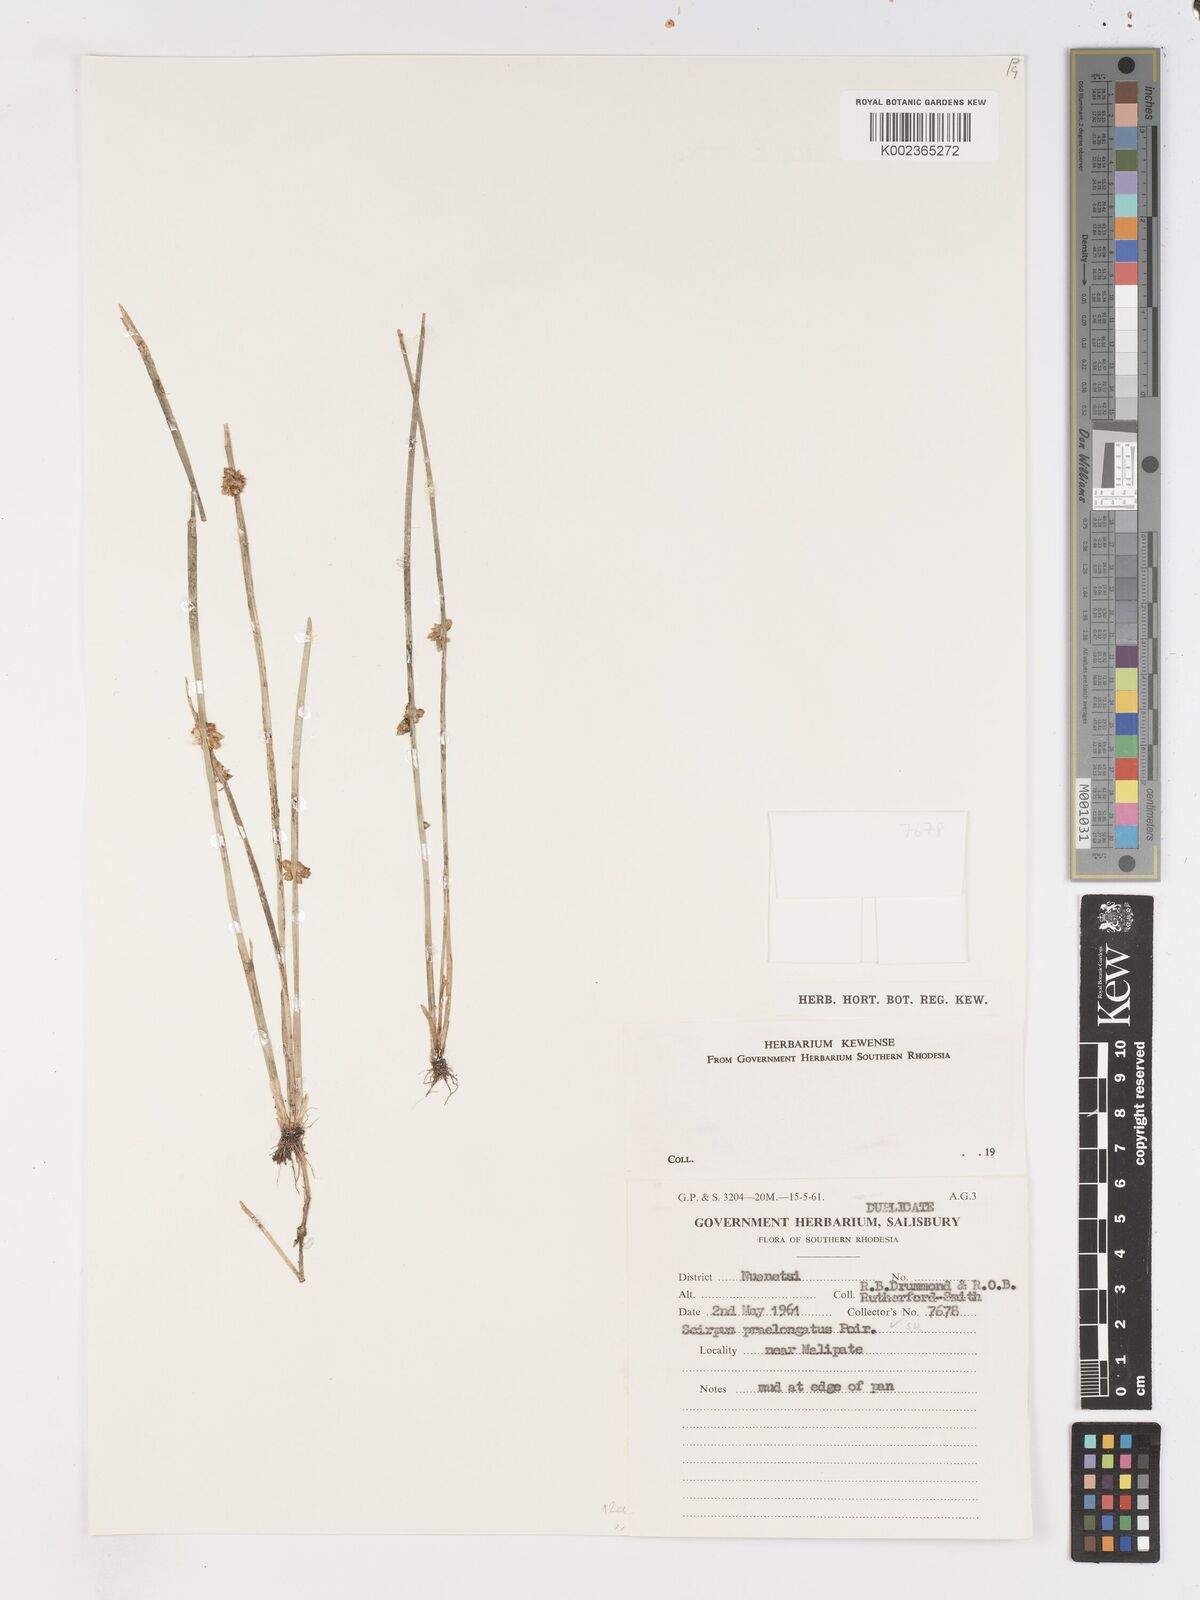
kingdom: Plantae
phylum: Tracheophyta
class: Liliopsida
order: Poales
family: Cyperaceae
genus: Schoenoplectiella
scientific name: Schoenoplectiella senegalensis
